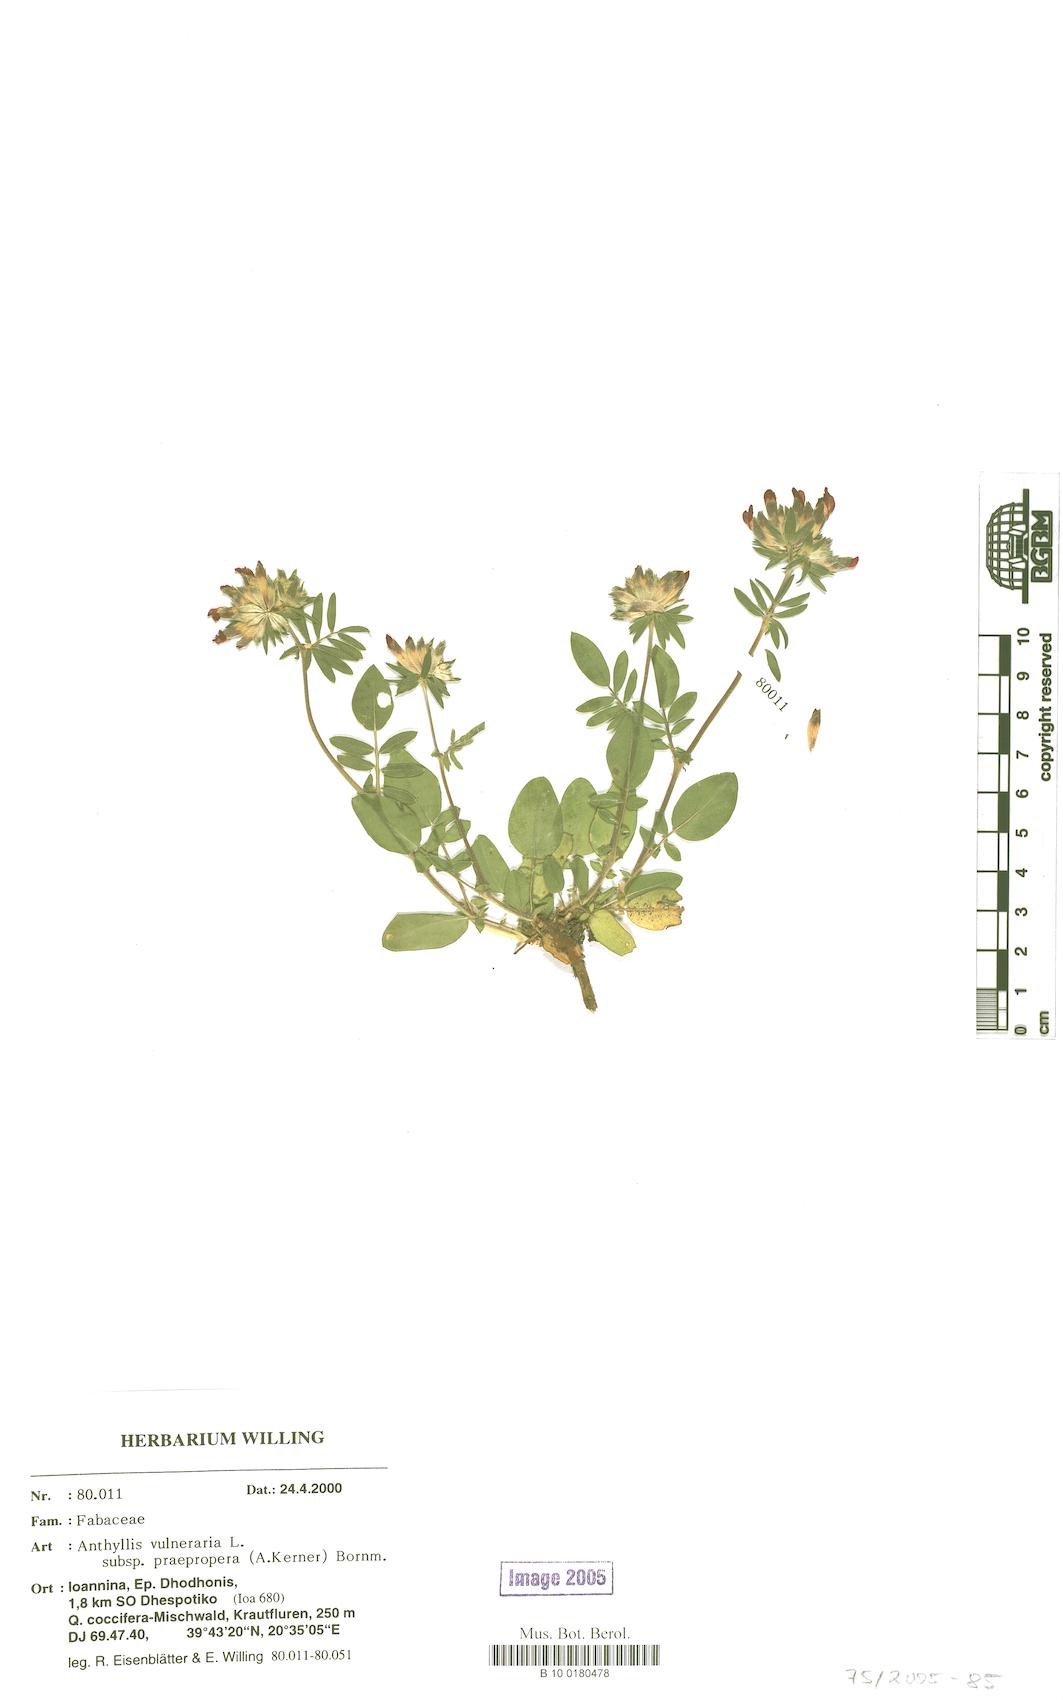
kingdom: Plantae
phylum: Tracheophyta
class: Magnoliopsida
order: Fabales
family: Fabaceae
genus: Anthyllis
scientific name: Anthyllis vulneraria
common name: Kidney vetch
